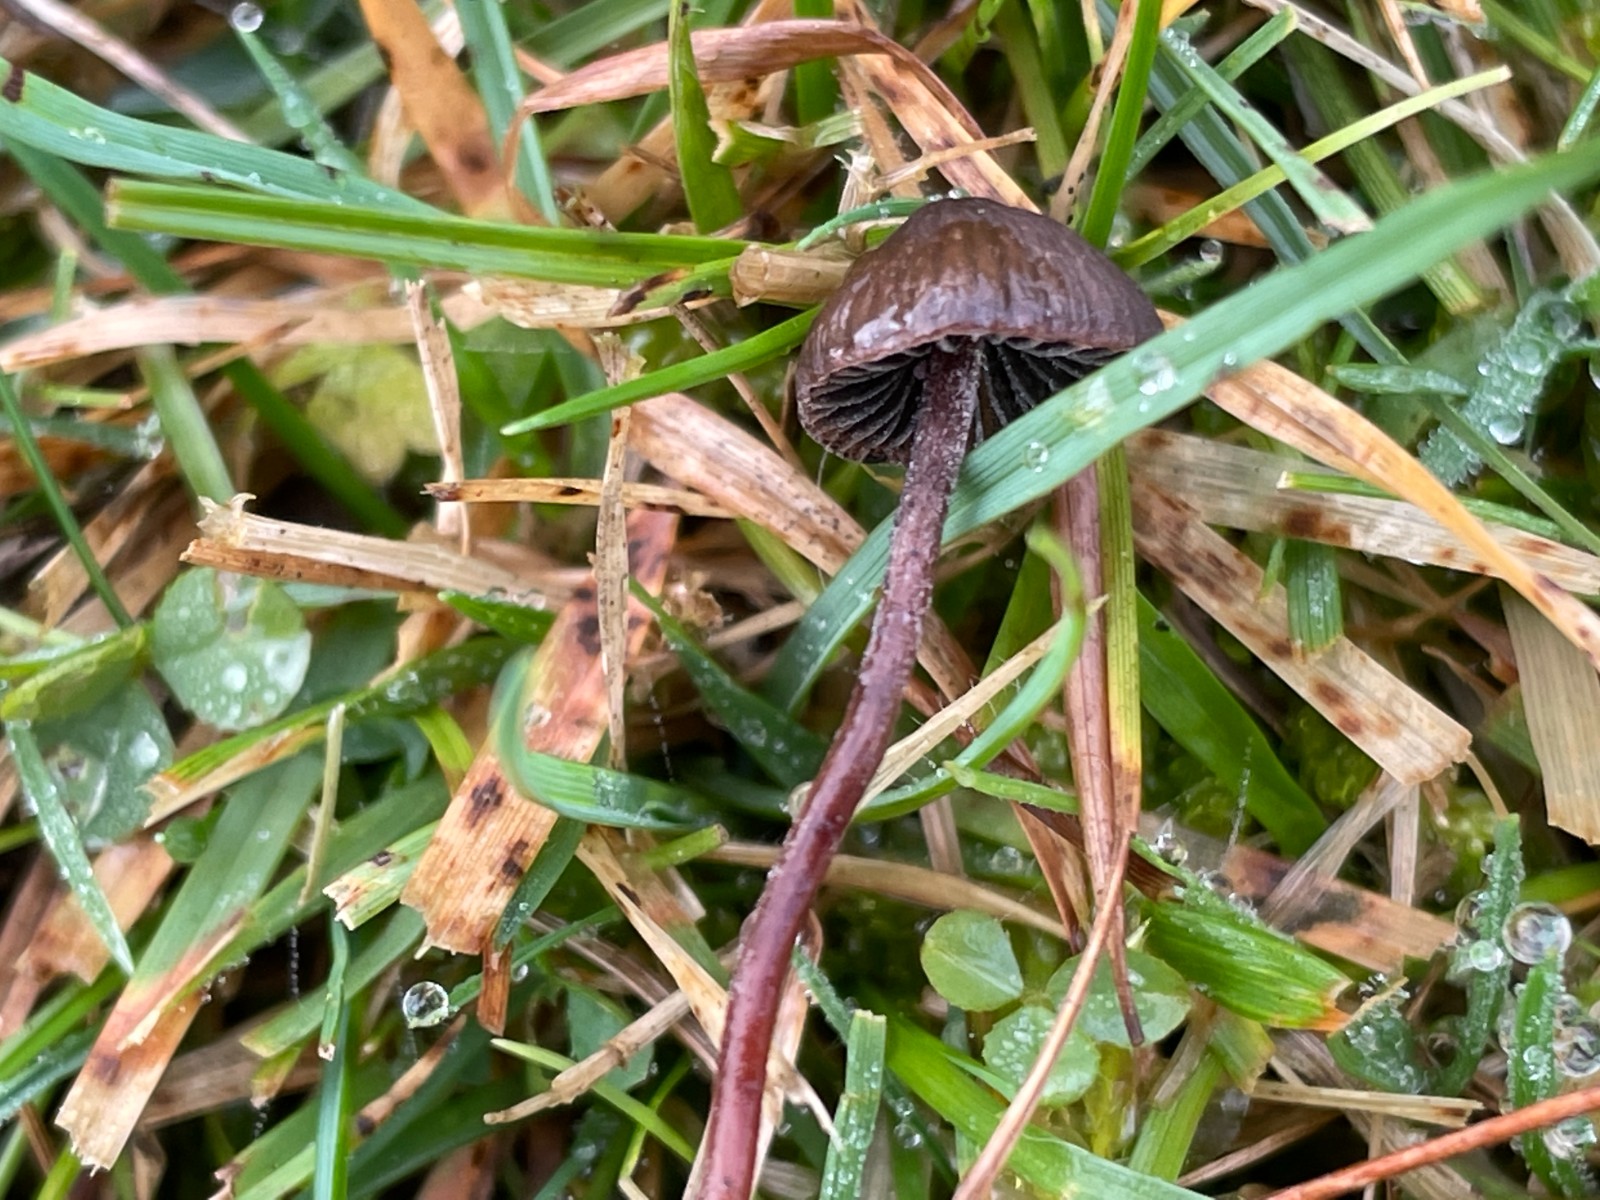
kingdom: Fungi
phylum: Basidiomycota
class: Agaricomycetes
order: Agaricales
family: Bolbitiaceae
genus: Panaeolus
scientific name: Panaeolus acuminatus
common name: høj glanshat
